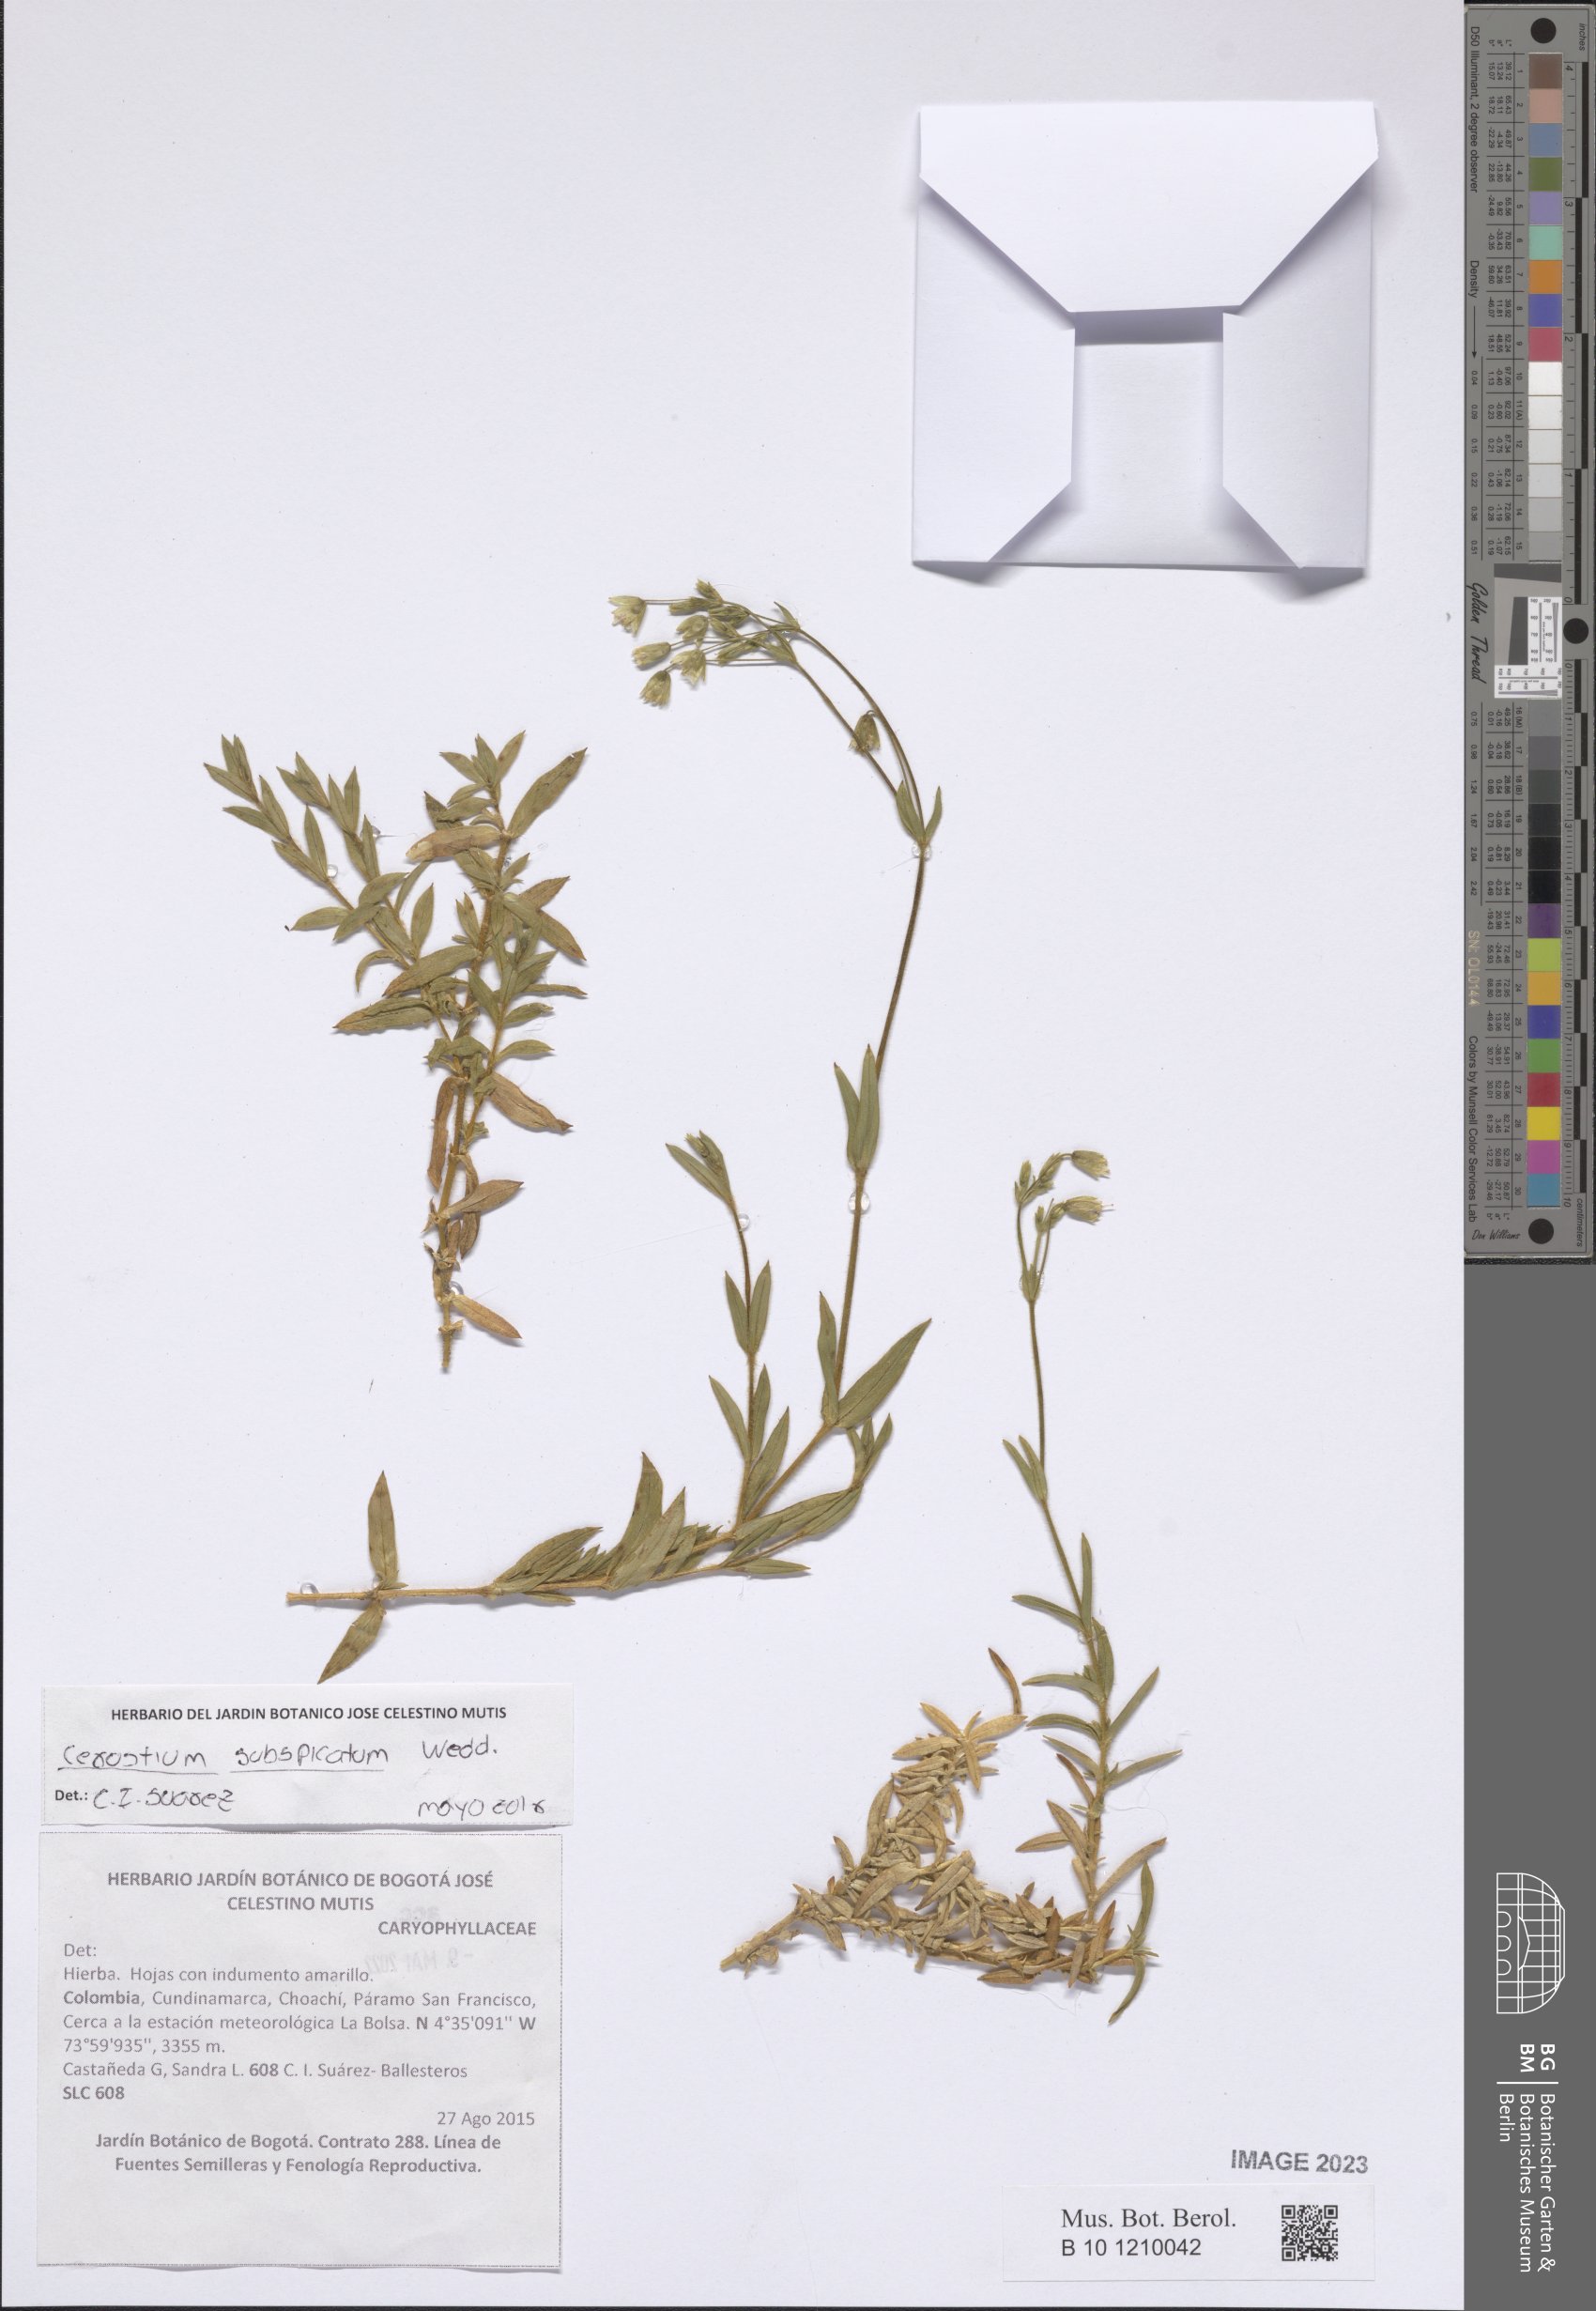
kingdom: Plantae
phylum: Tracheophyta
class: Magnoliopsida
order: Caryophyllales
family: Caryophyllaceae
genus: Cerastium
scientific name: Cerastium subspicatum
